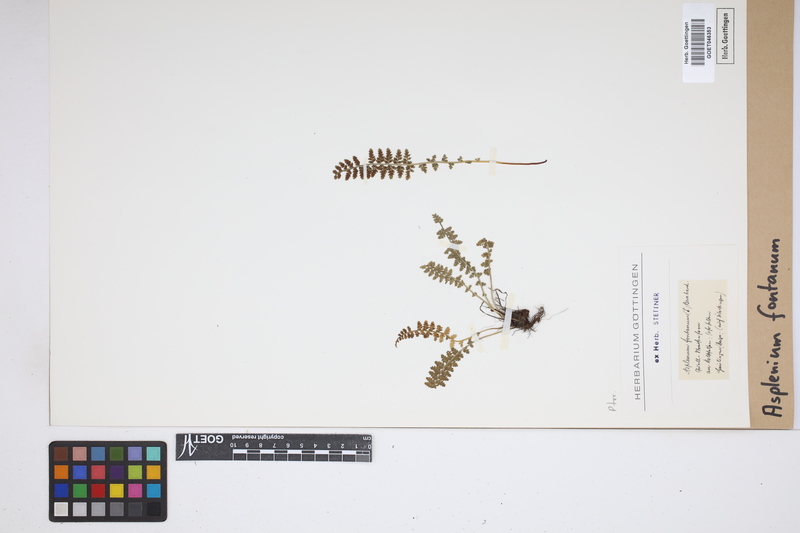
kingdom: Plantae
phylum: Tracheophyta
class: Polypodiopsida
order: Polypodiales
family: Aspleniaceae
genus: Asplenium
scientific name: Asplenium fontanum
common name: Fountain spleenwort
